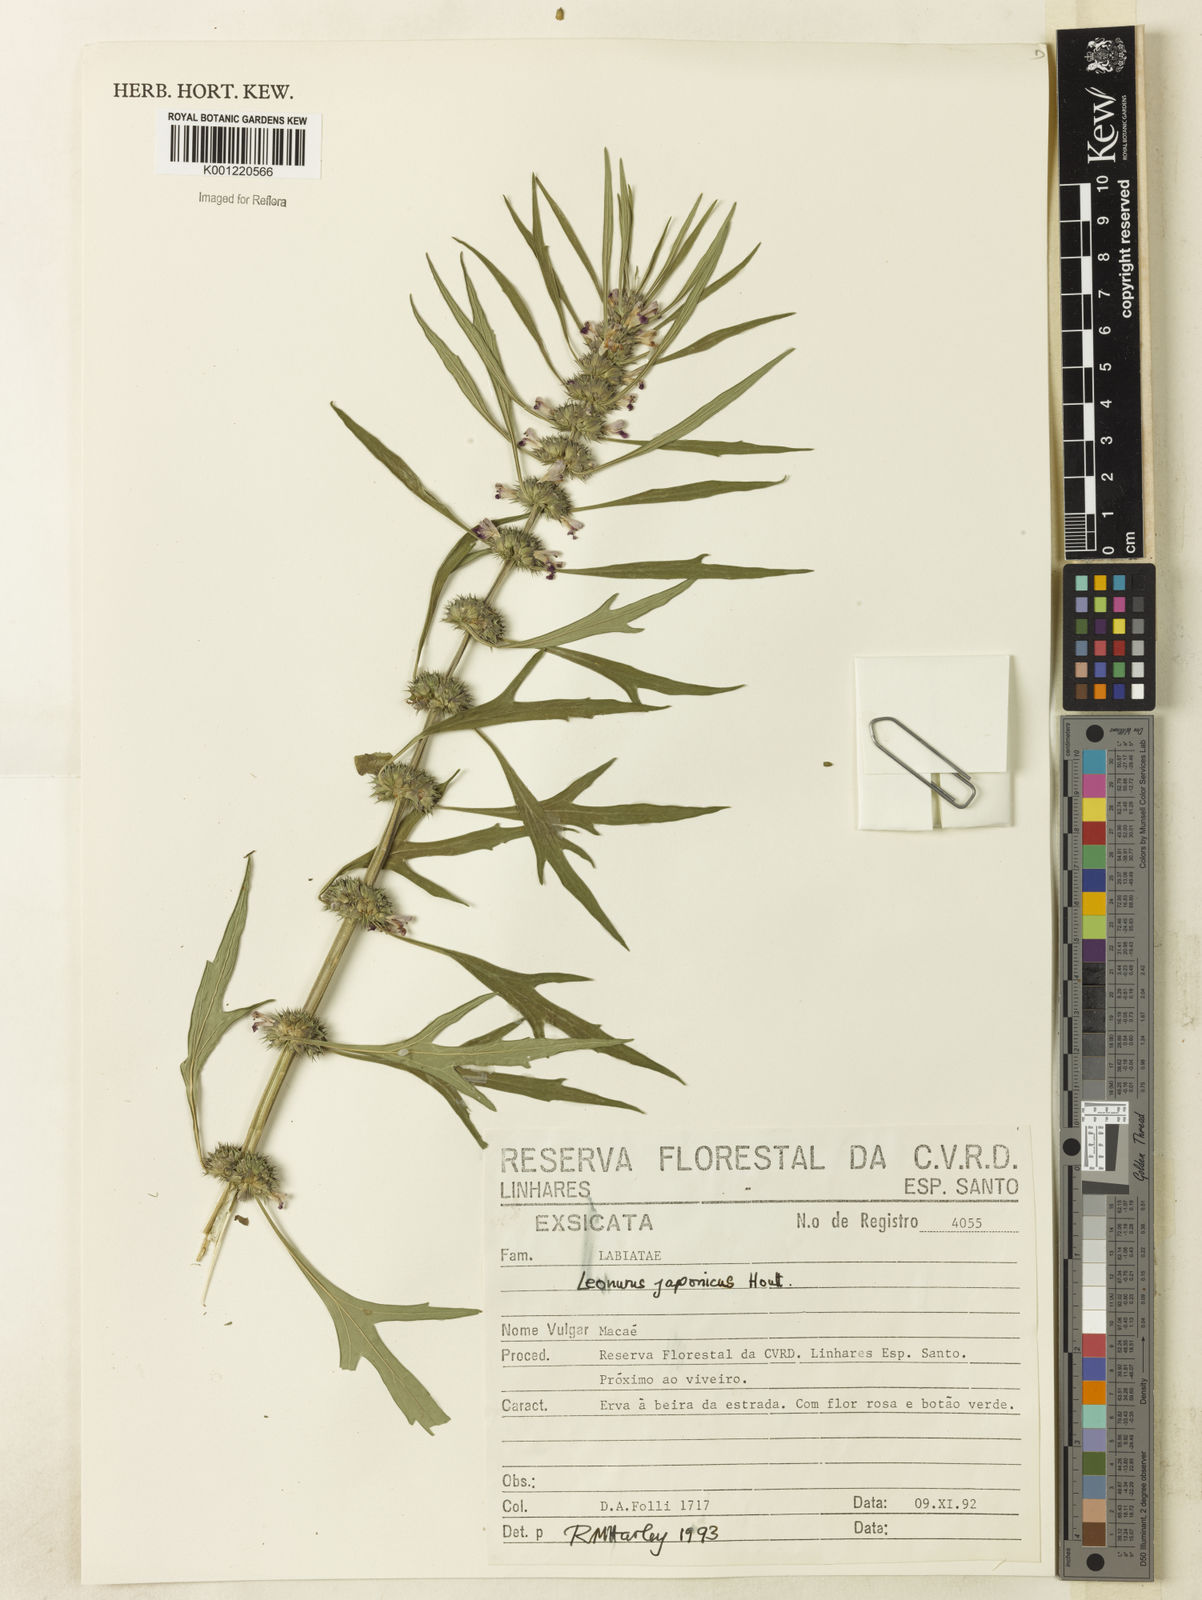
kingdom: Plantae
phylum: Tracheophyta
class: Magnoliopsida
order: Lamiales
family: Lamiaceae
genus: Leonurus
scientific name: Leonurus japonicus
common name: Honeyweed
